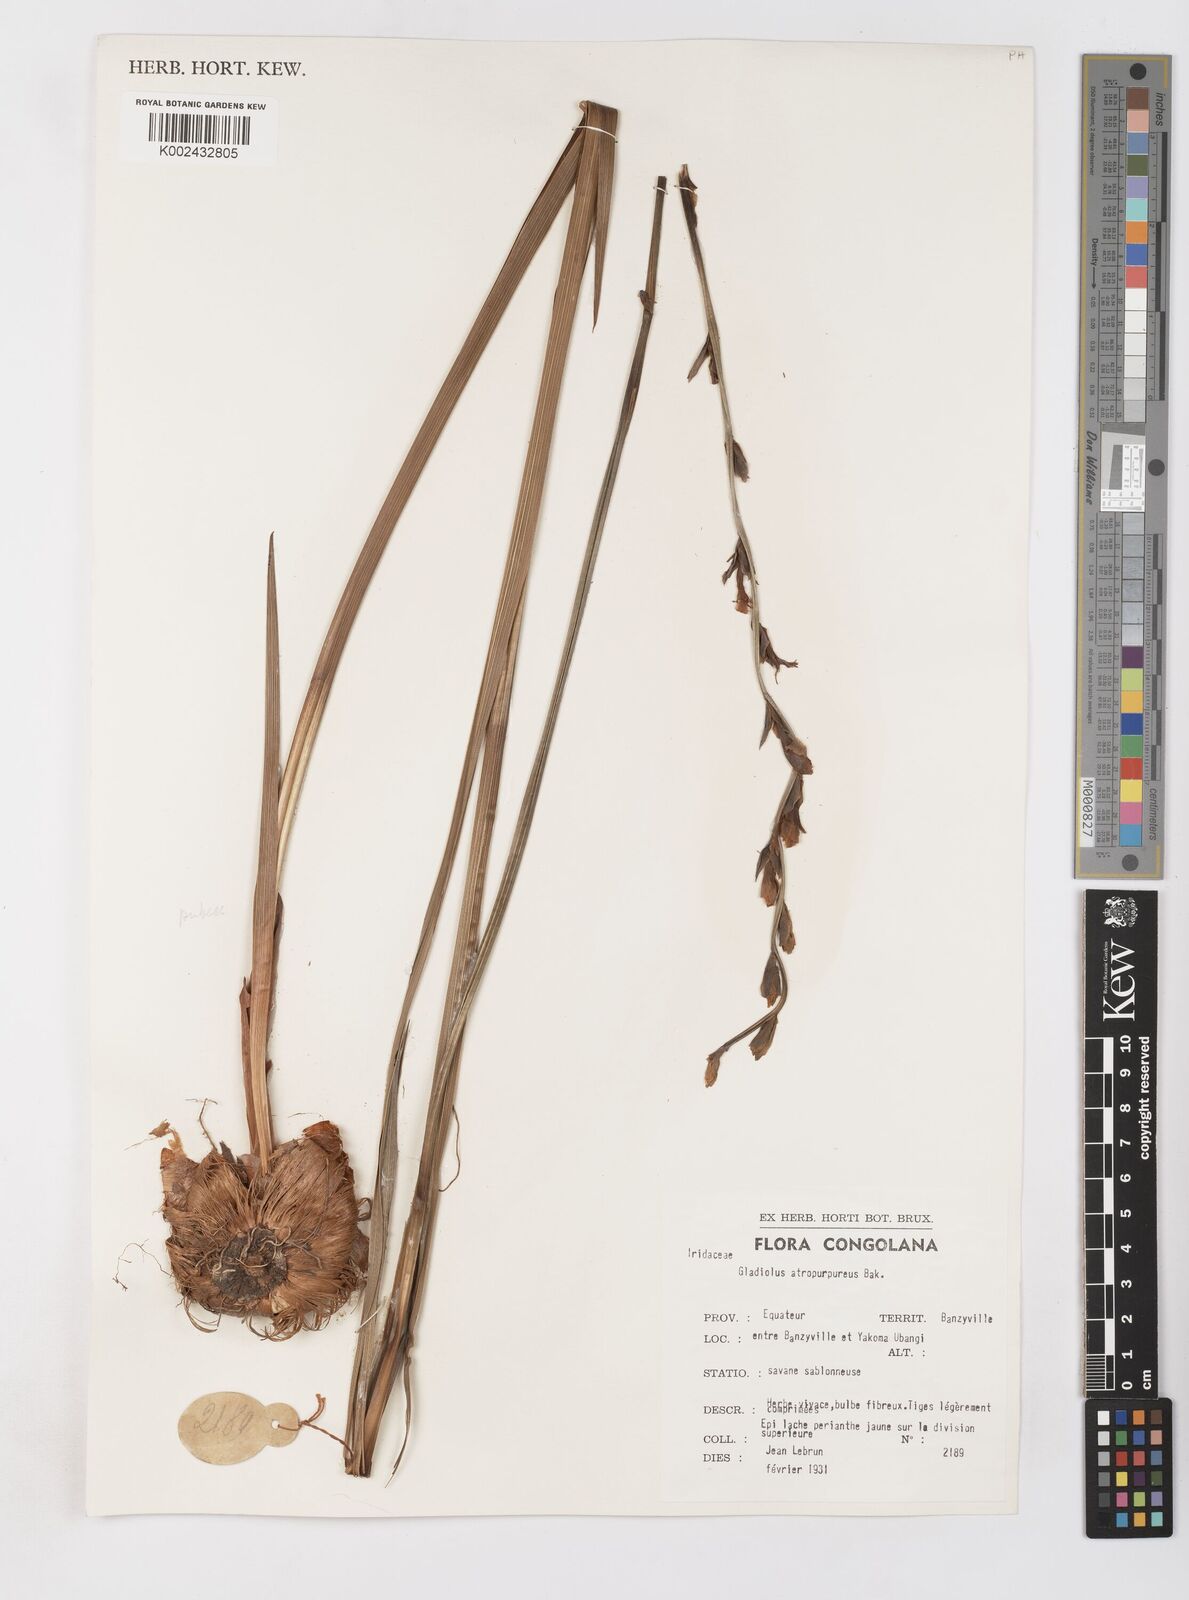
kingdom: Plantae
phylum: Tracheophyta
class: Liliopsida
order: Asparagales
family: Iridaceae
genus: Gladiolus
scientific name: Gladiolus atropurpureus
